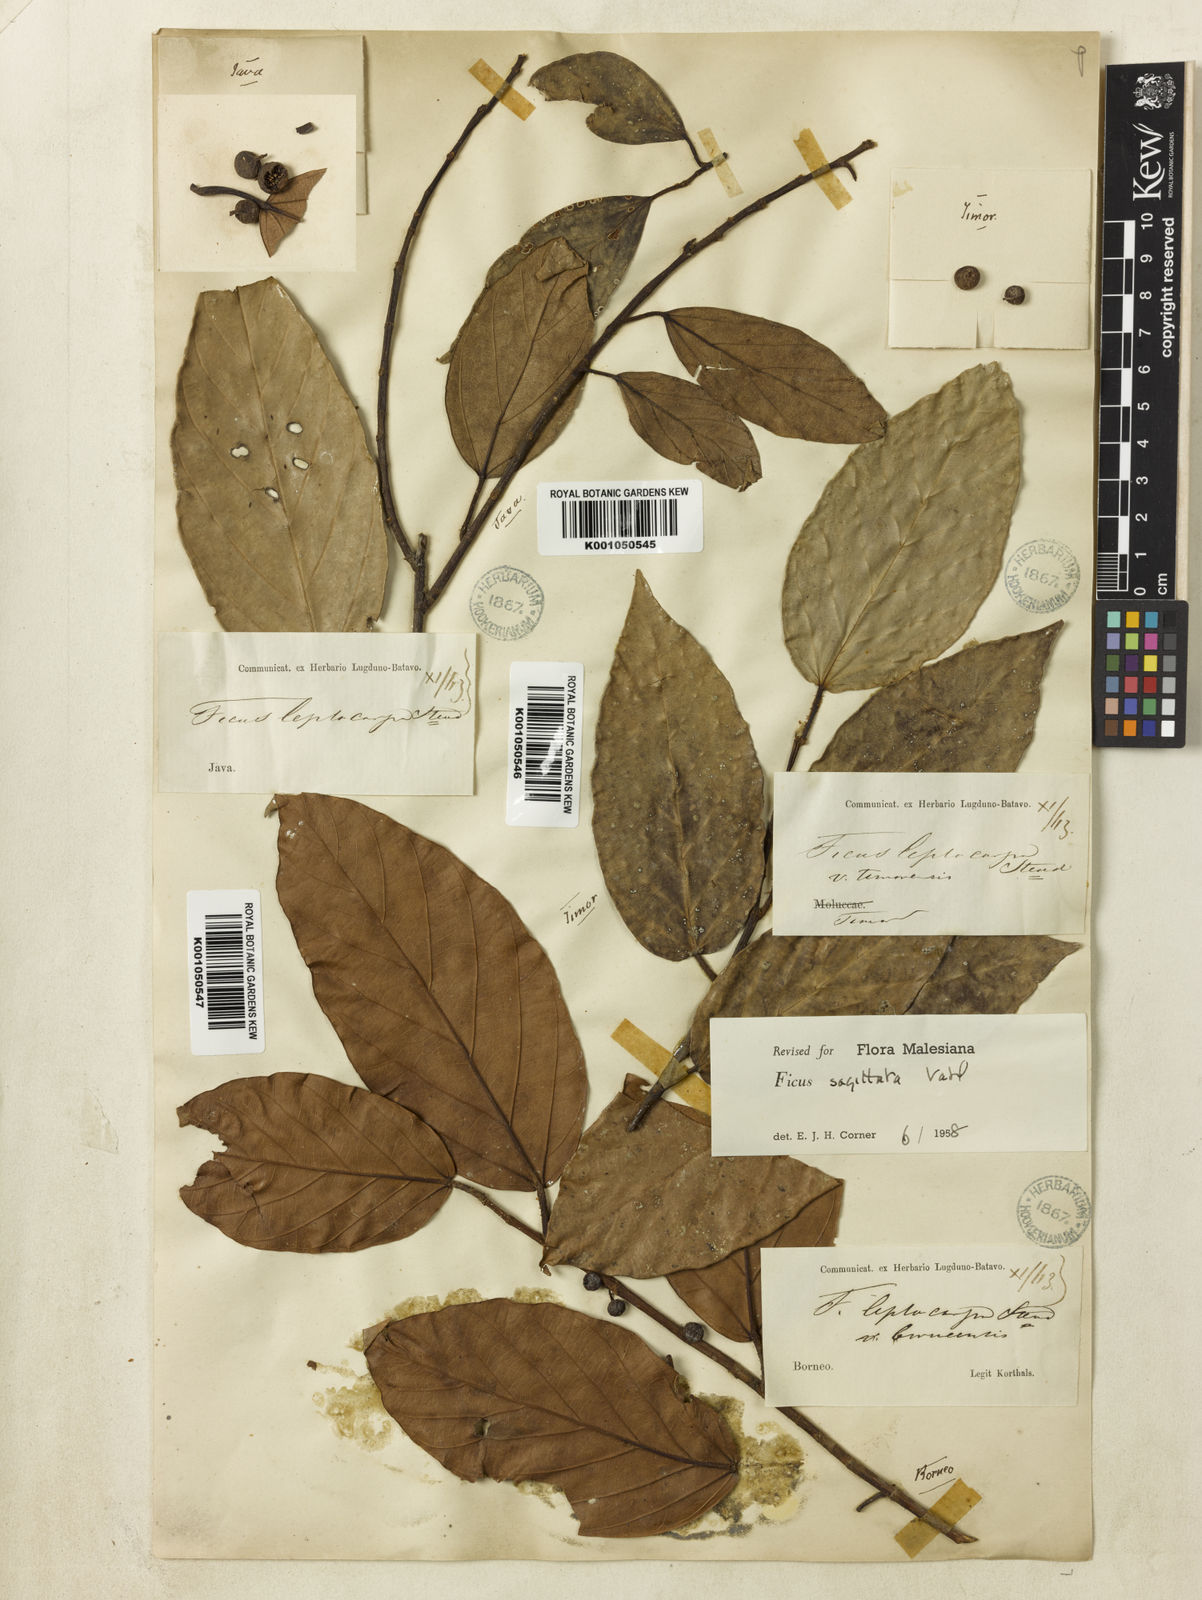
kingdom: Plantae
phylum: Tracheophyta
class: Magnoliopsida
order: Rosales
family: Moraceae
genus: Ficus
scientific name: Ficus sagittata
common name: Trailing fig
